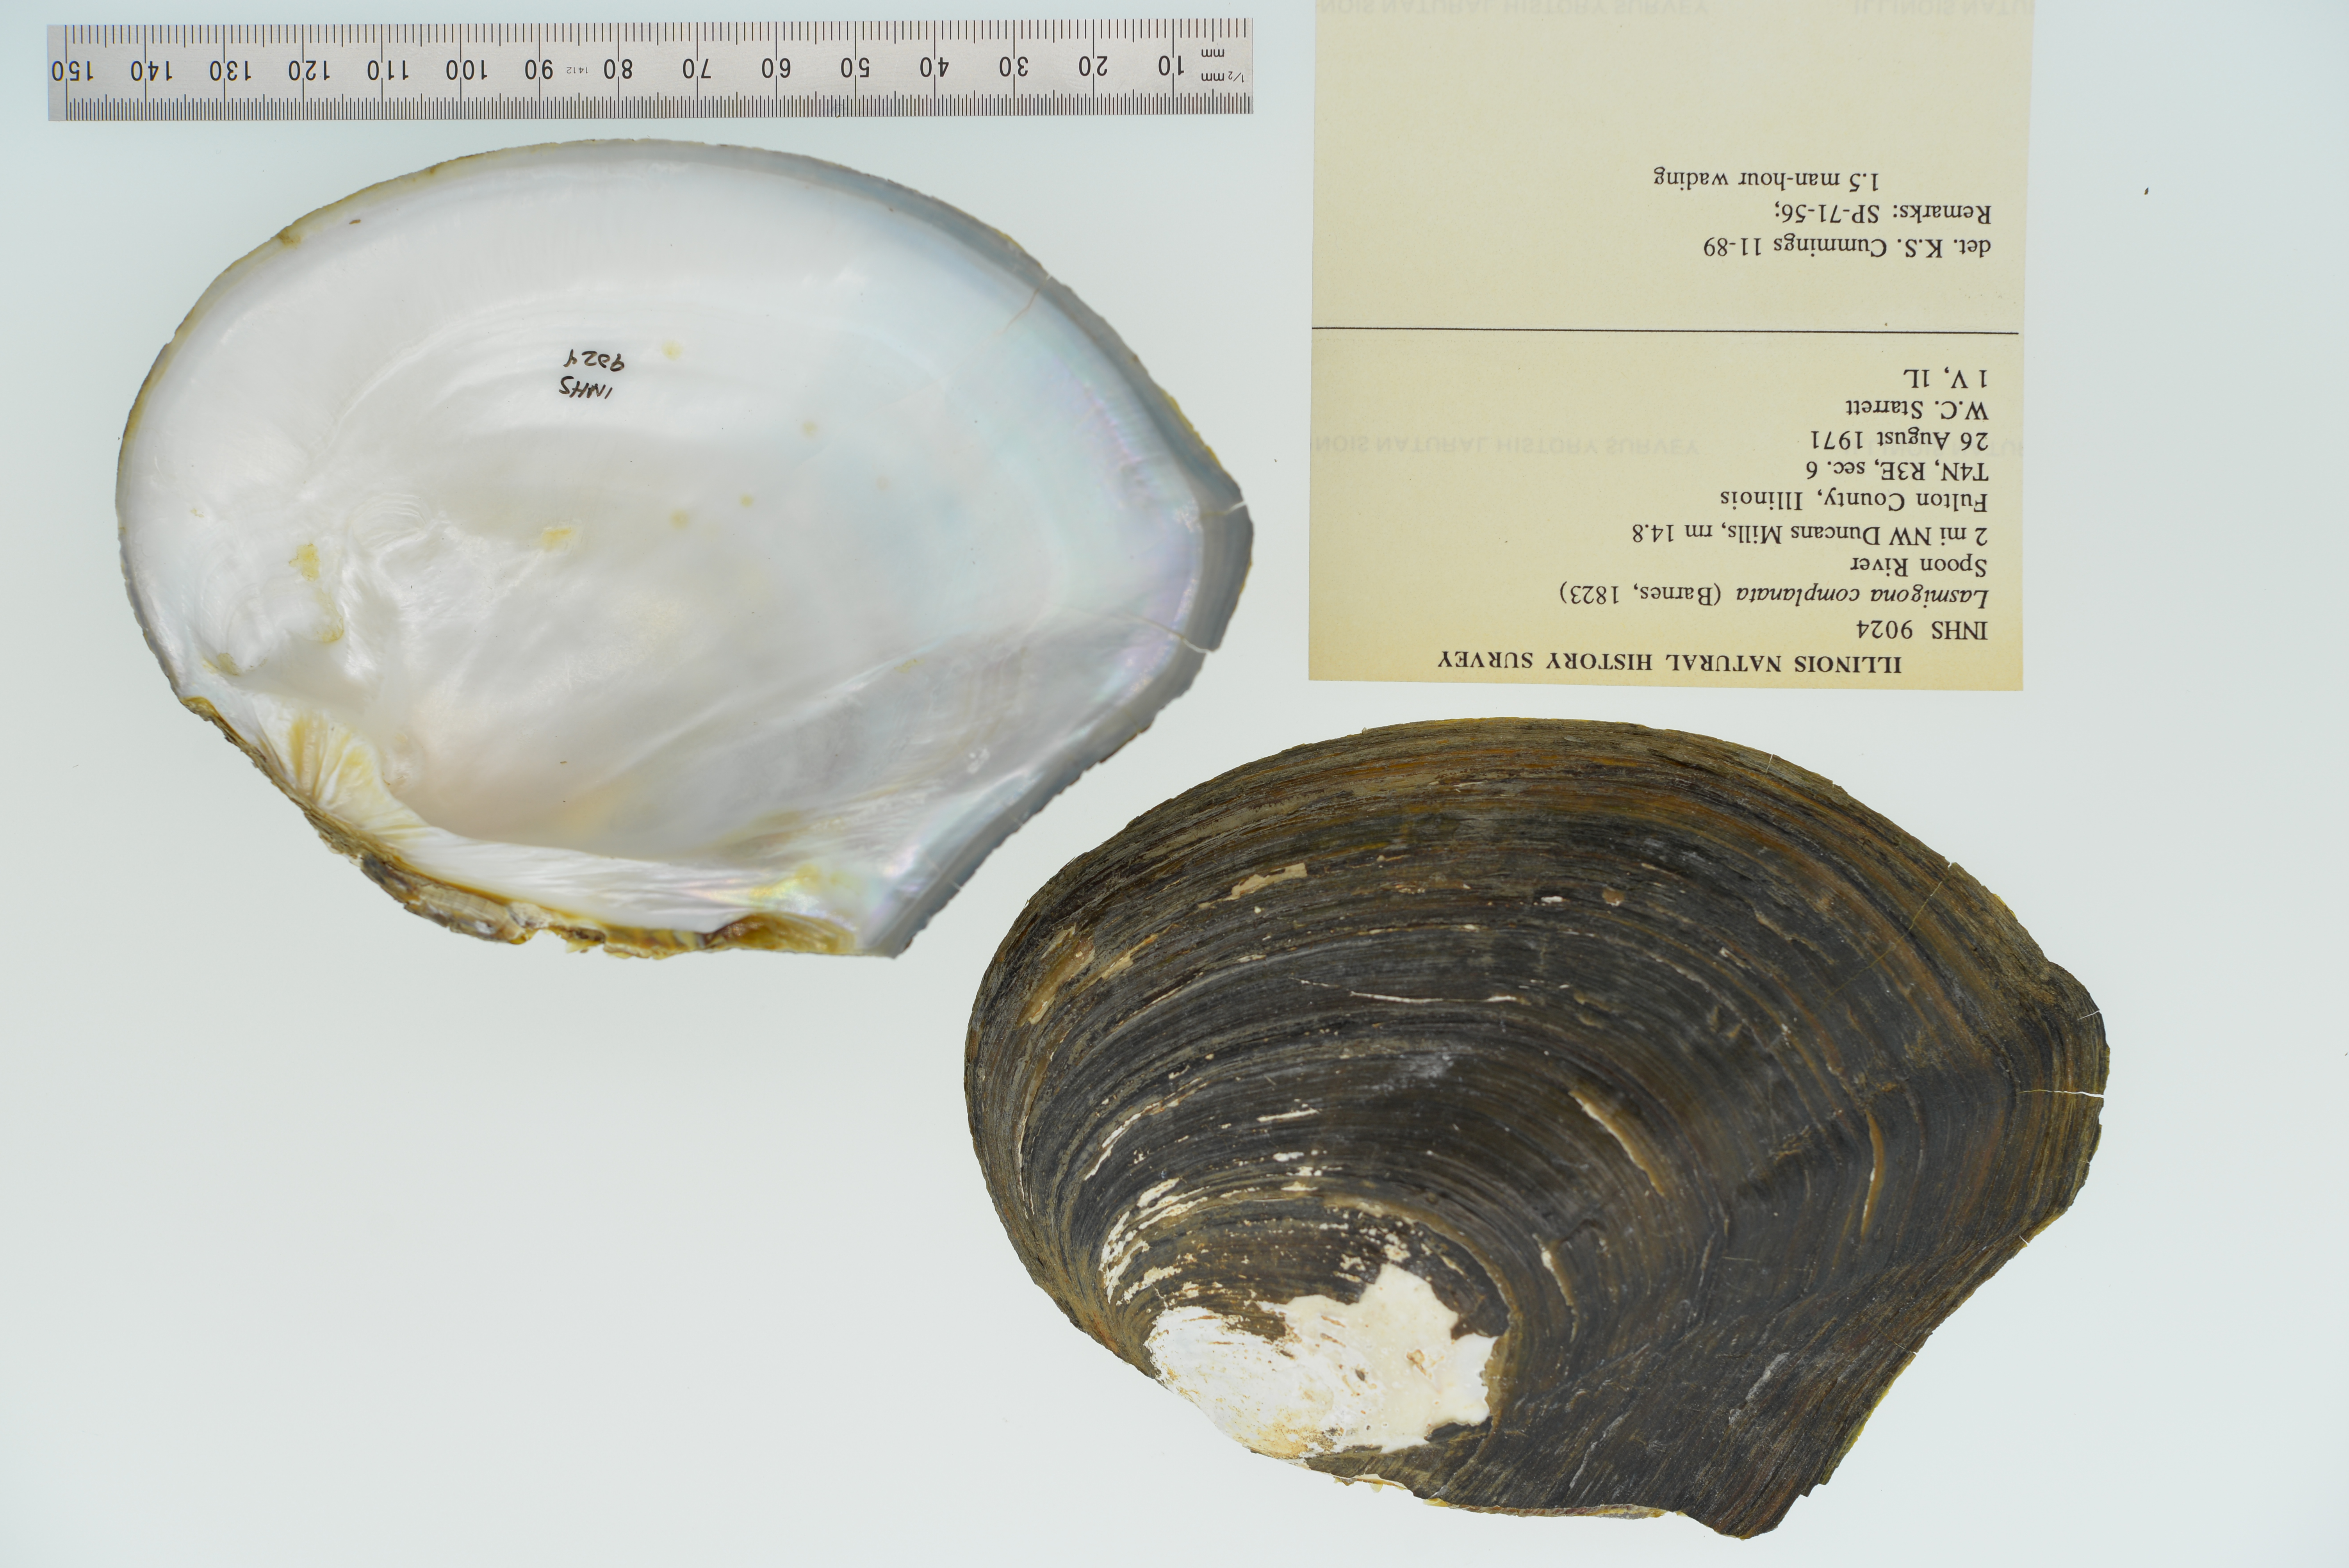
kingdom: Animalia
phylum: Mollusca
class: Bivalvia
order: Unionida
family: Unionidae
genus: Lasmigona
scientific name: Lasmigona complanata
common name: White heelsplitter
